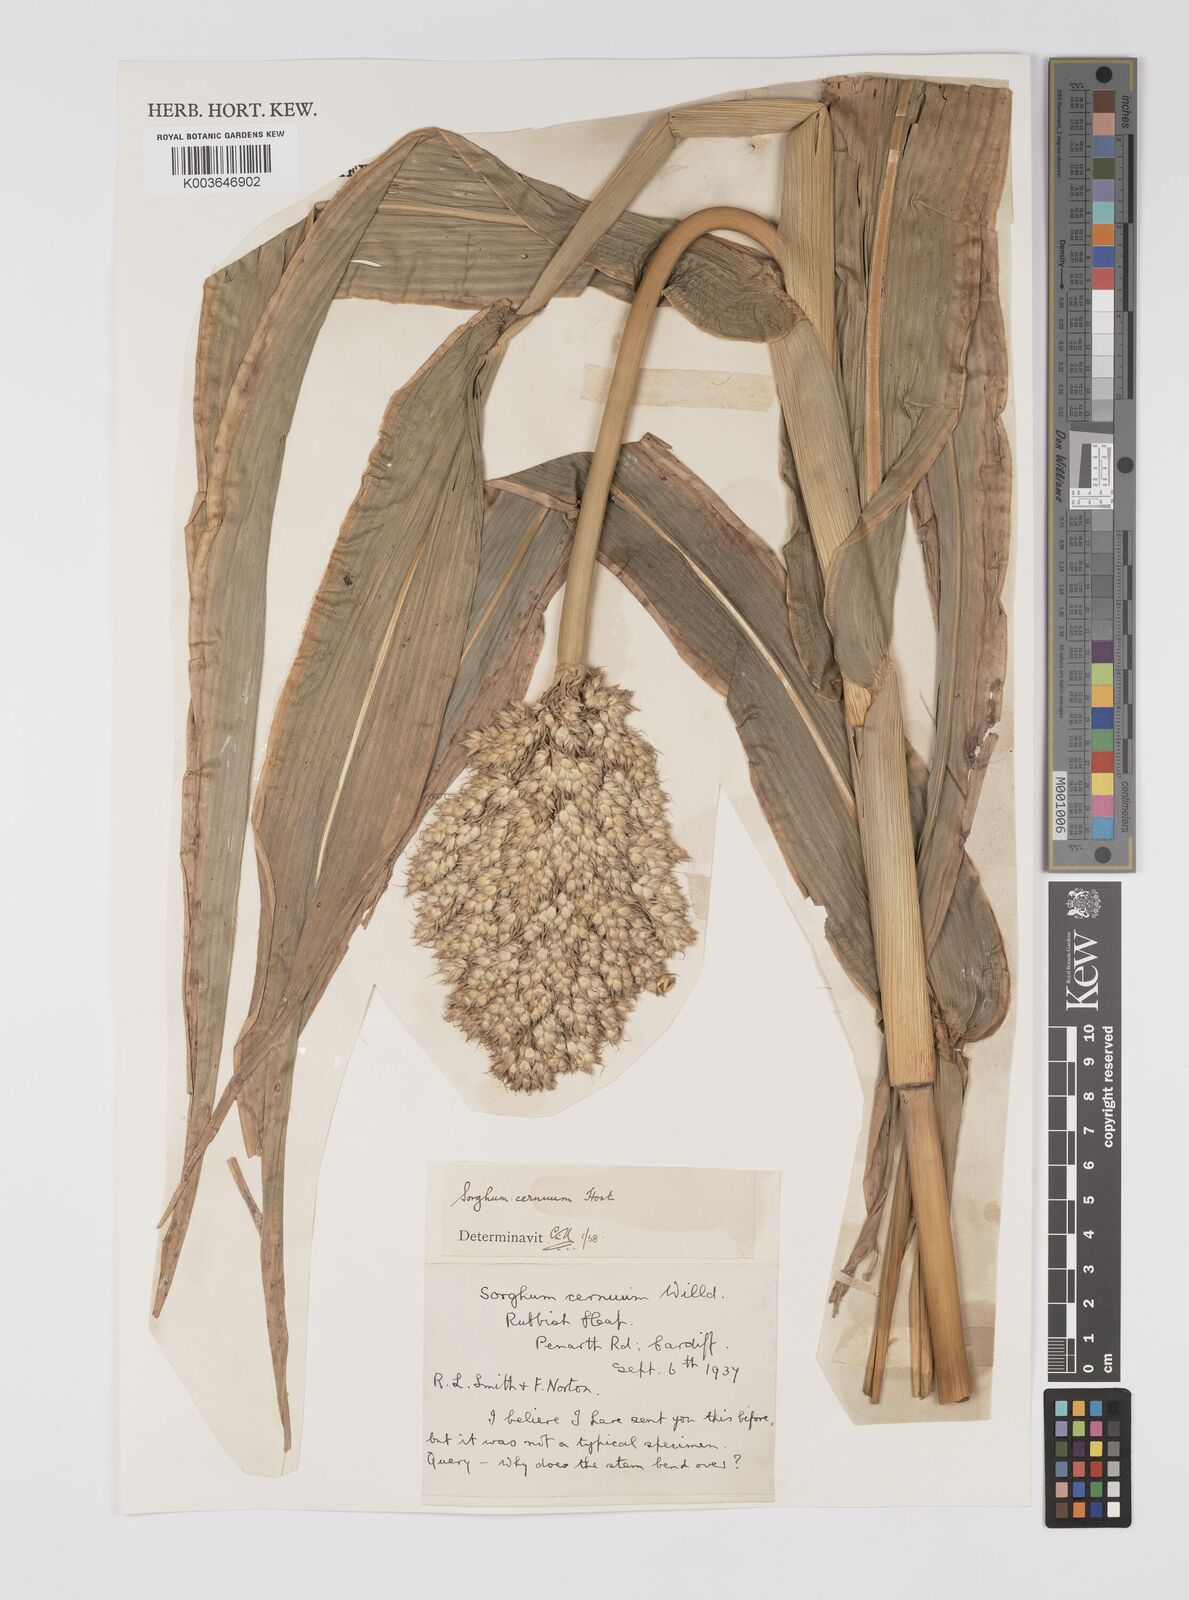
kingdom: Plantae
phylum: Tracheophyta
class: Liliopsida
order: Poales
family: Poaceae
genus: Sorghum
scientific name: Sorghum
